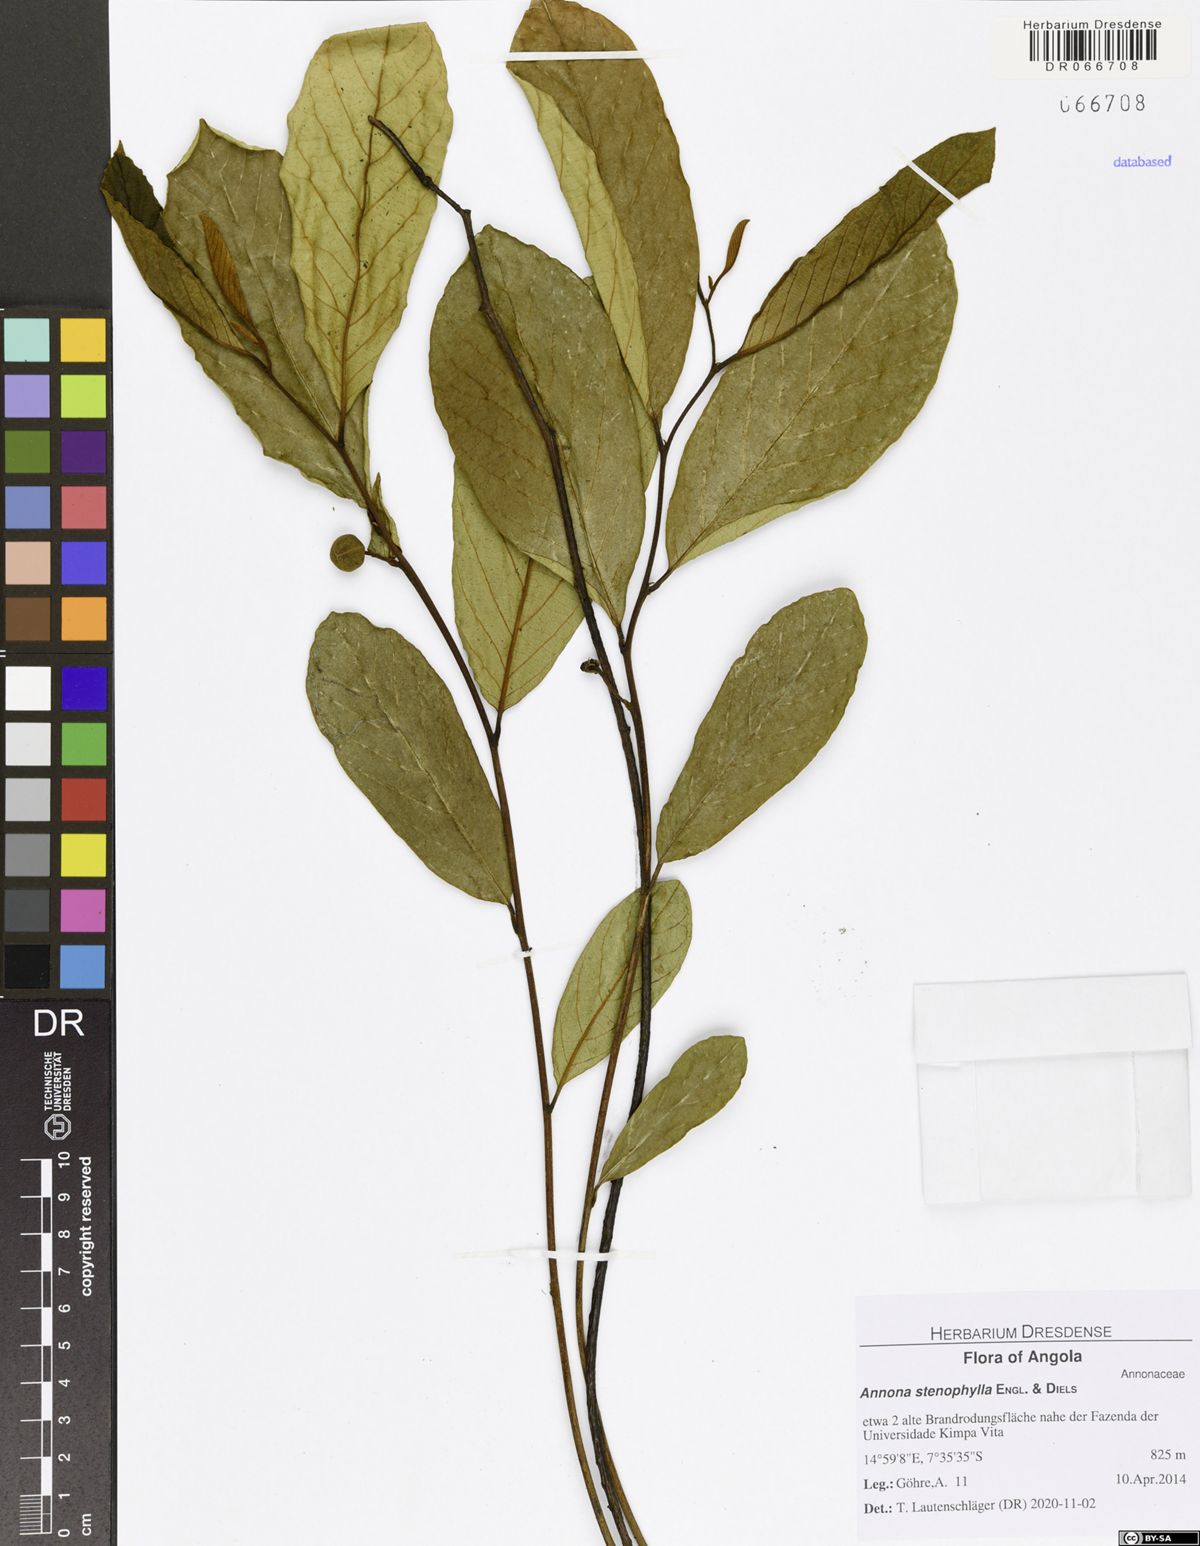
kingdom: Plantae
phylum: Tracheophyta
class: Magnoliopsida
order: Magnoliales
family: Annonaceae
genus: Annona
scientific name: Annona stenophylla
